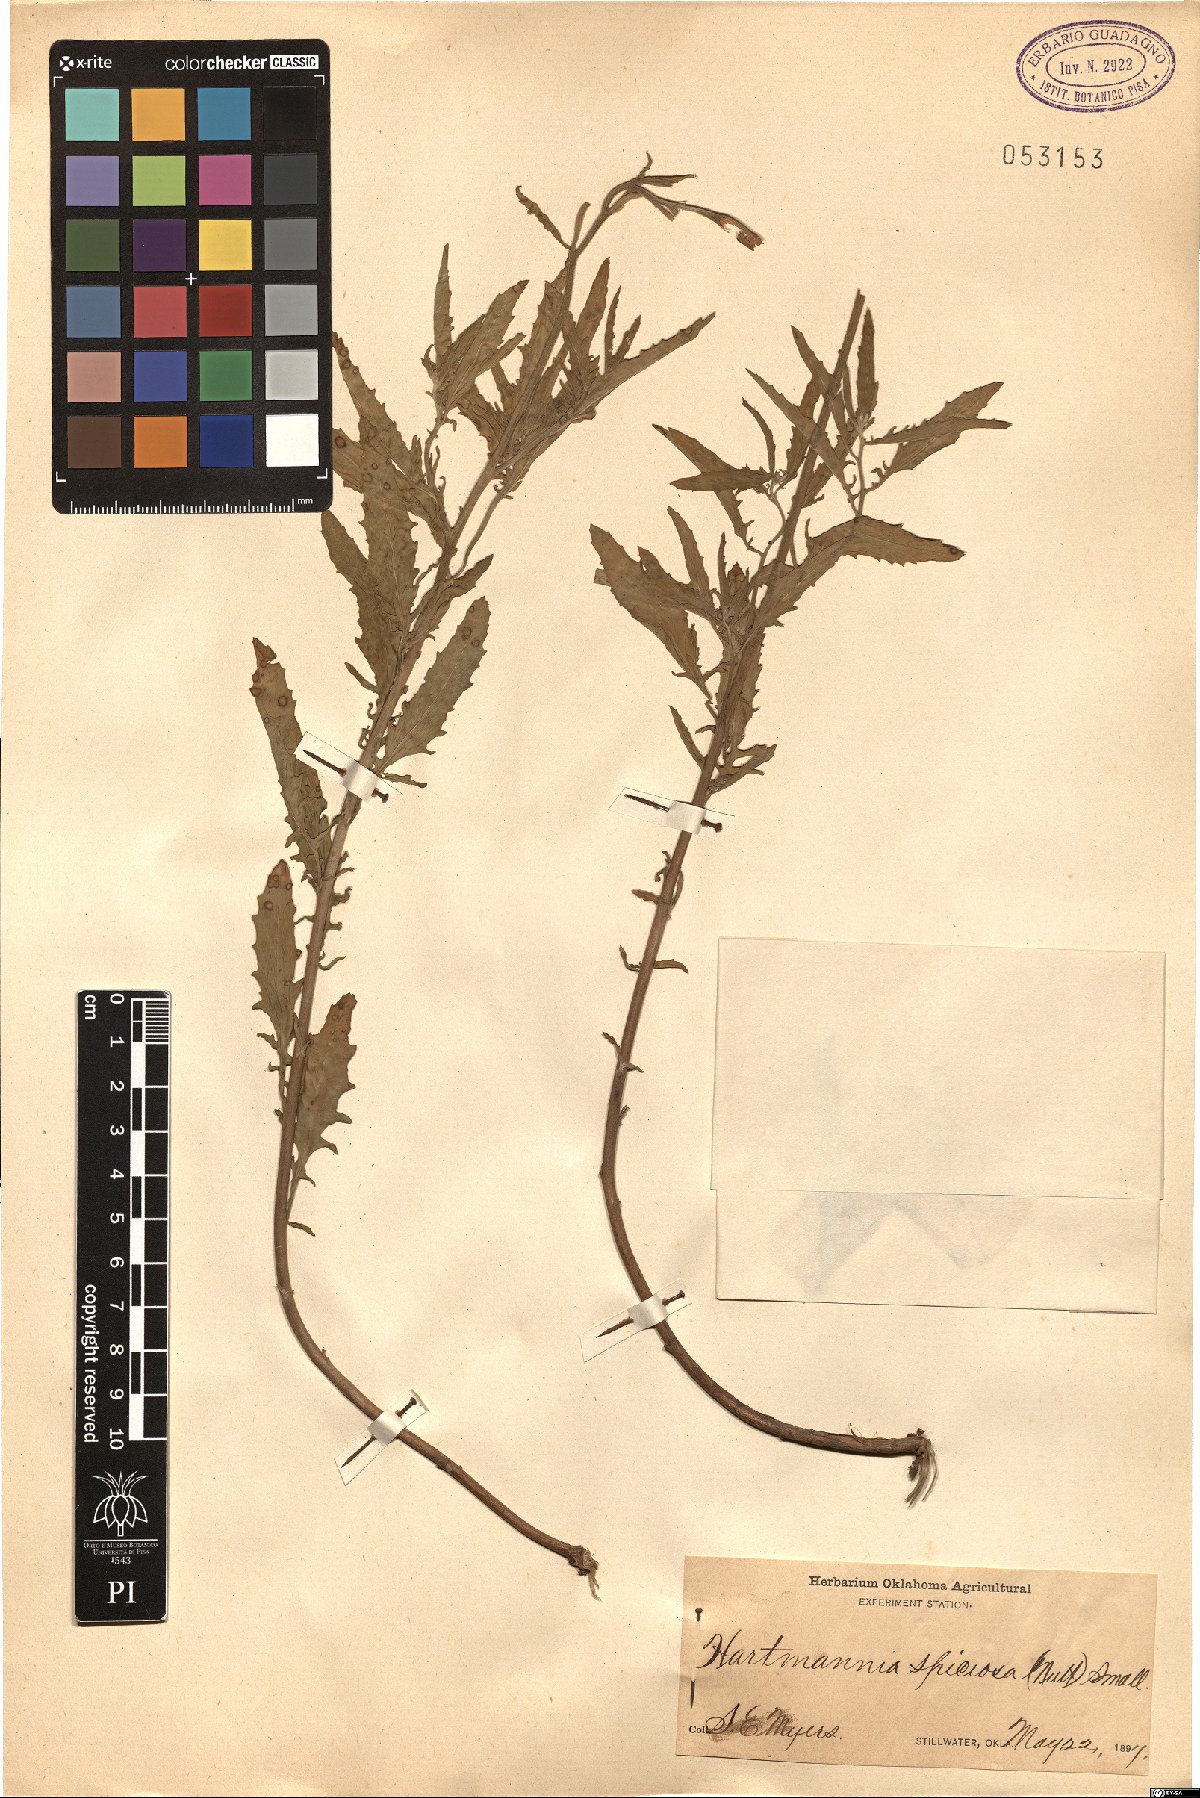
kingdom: Plantae
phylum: Tracheophyta
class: Magnoliopsida
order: Myrtales
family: Onagraceae
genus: Oenothera
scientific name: Oenothera speciosa
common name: White evening-primrose
